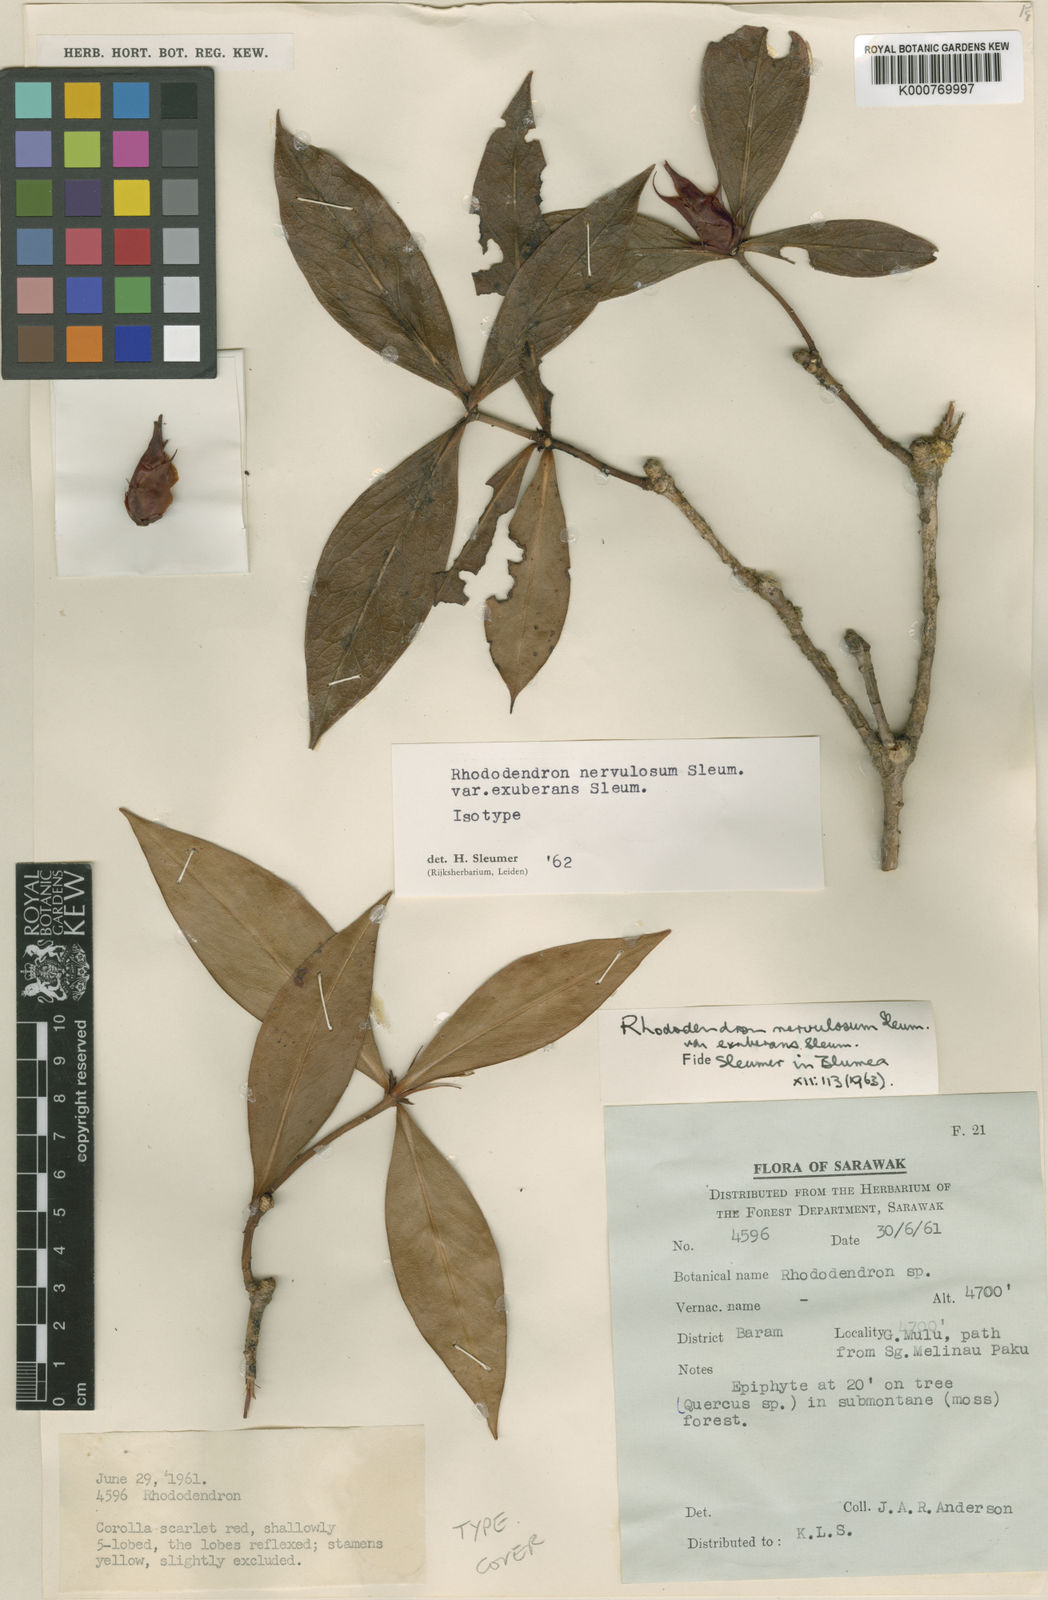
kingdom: Plantae
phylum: Tracheophyta
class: Magnoliopsida
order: Ericales
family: Ericaceae
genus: Rhododendron
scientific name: Rhododendron
